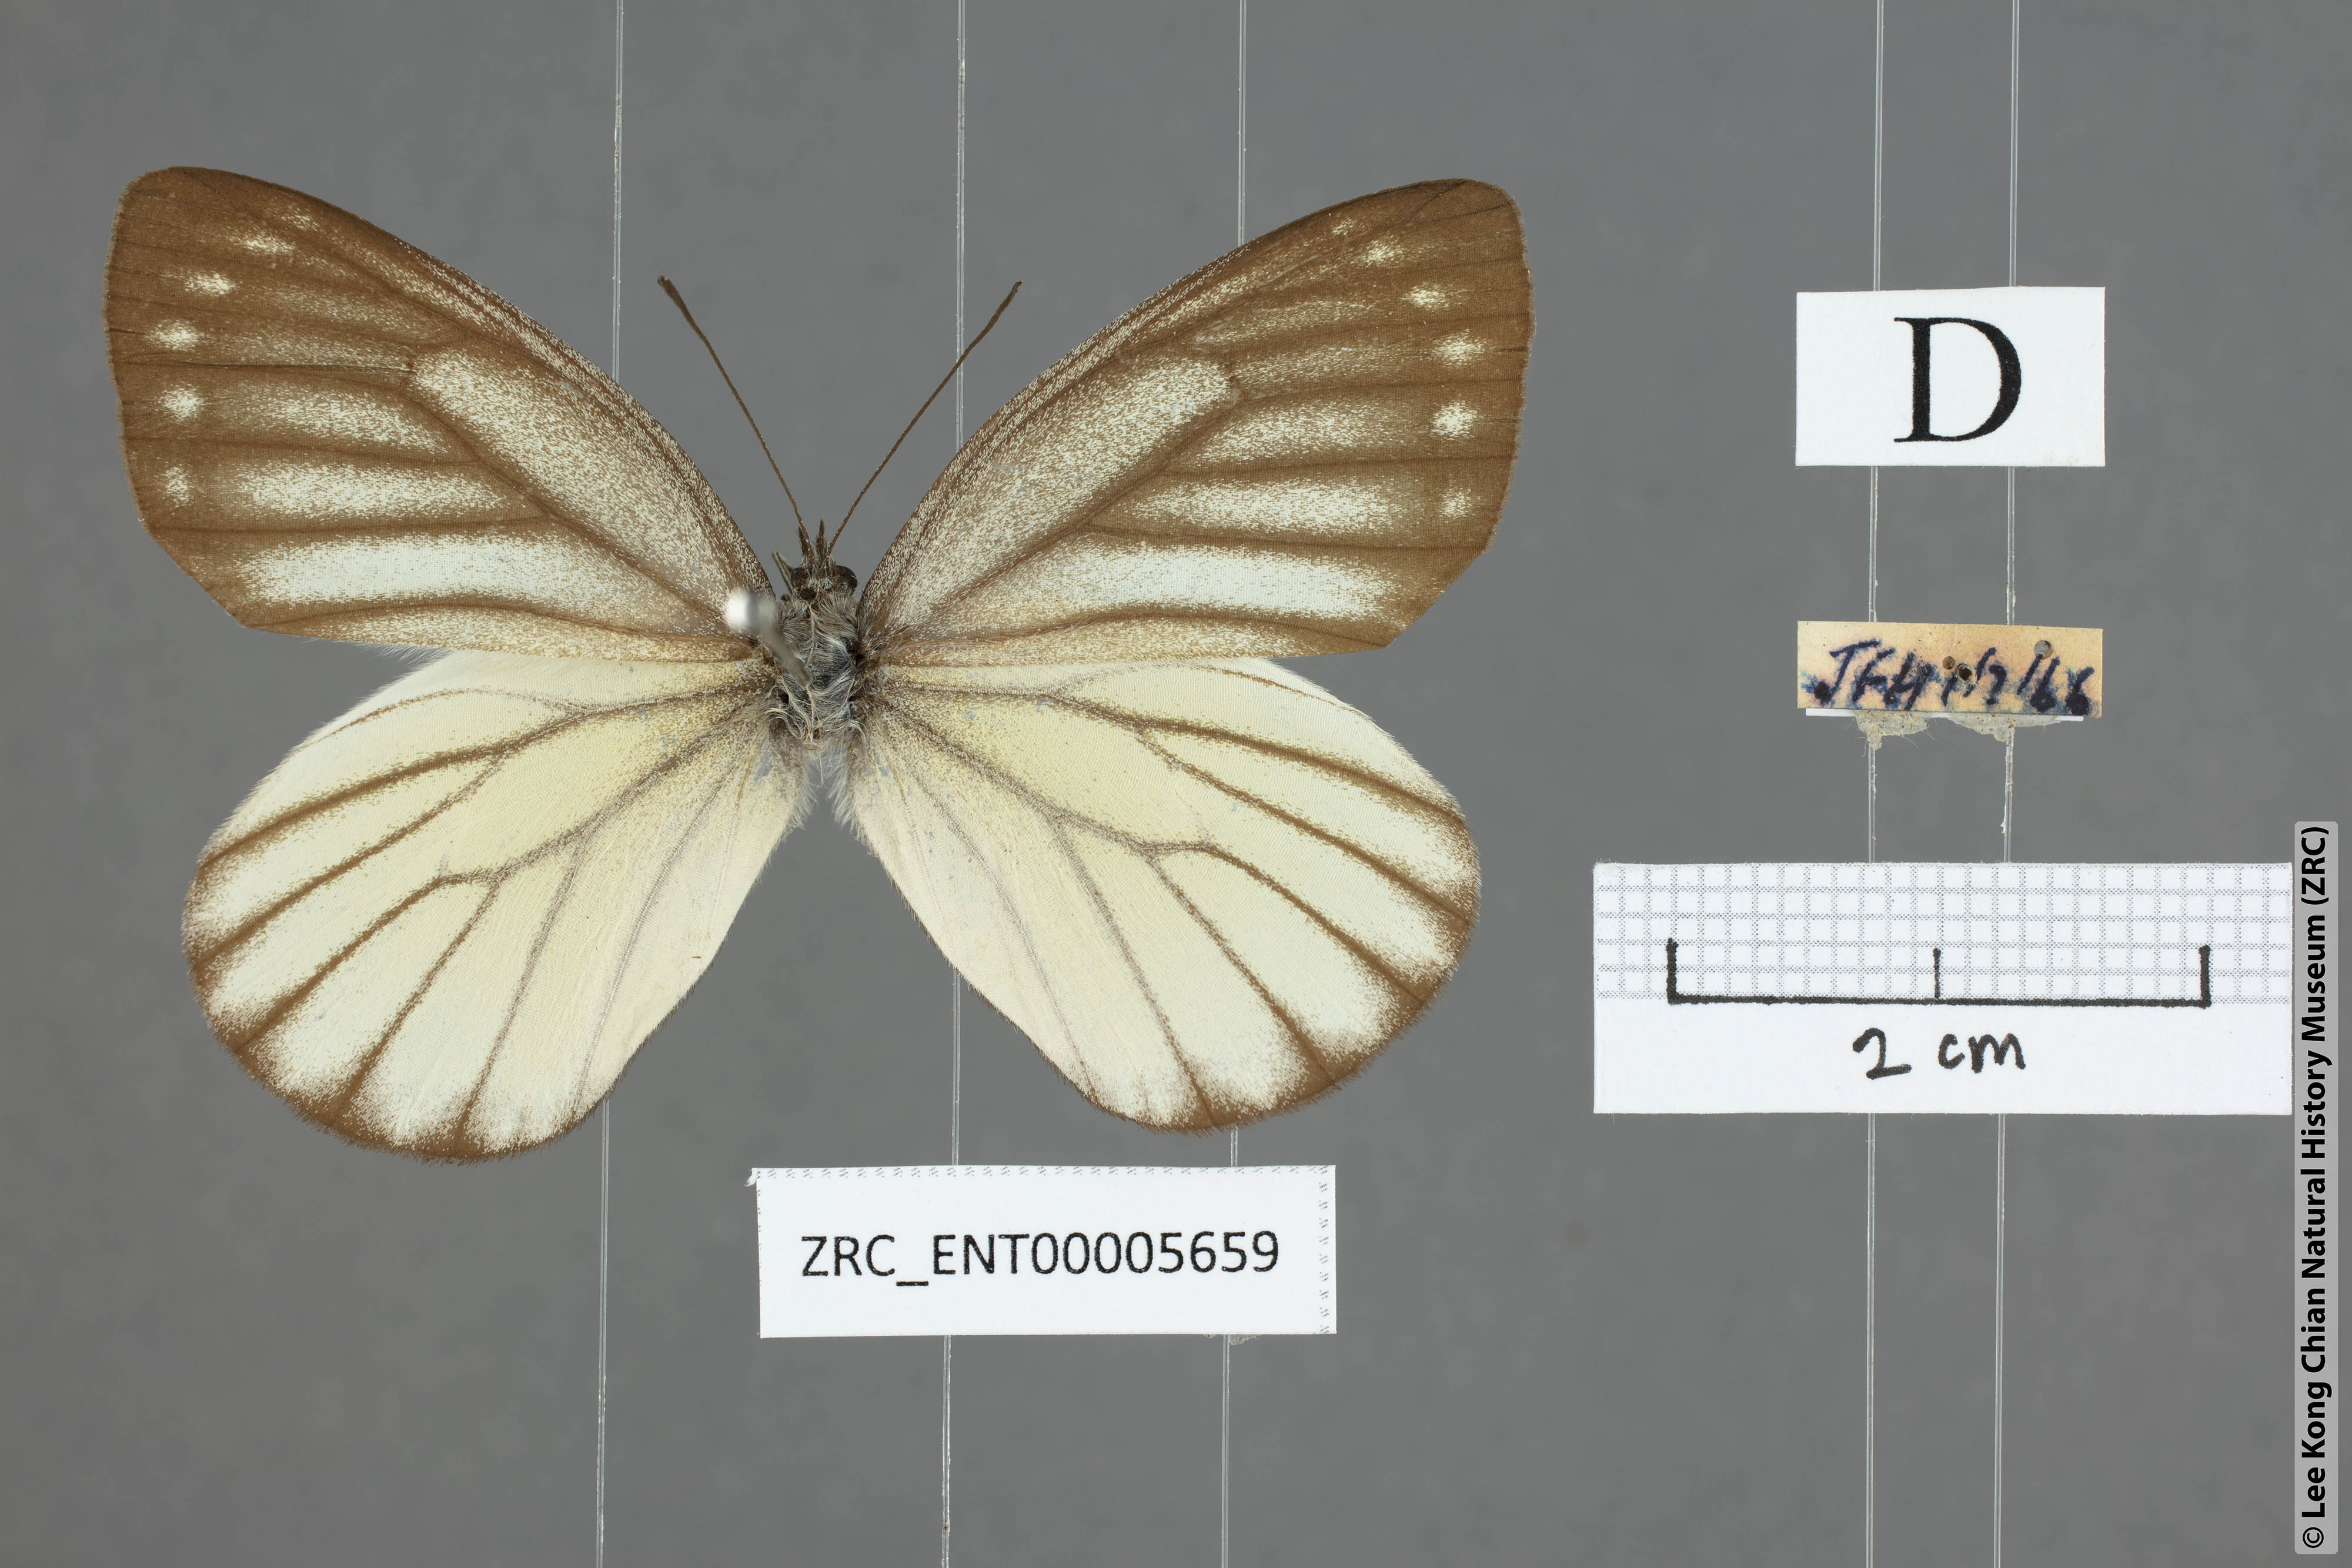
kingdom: Animalia
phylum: Arthropoda
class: Insecta
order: Lepidoptera
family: Pieridae
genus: Delias
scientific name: Delias baracasa
